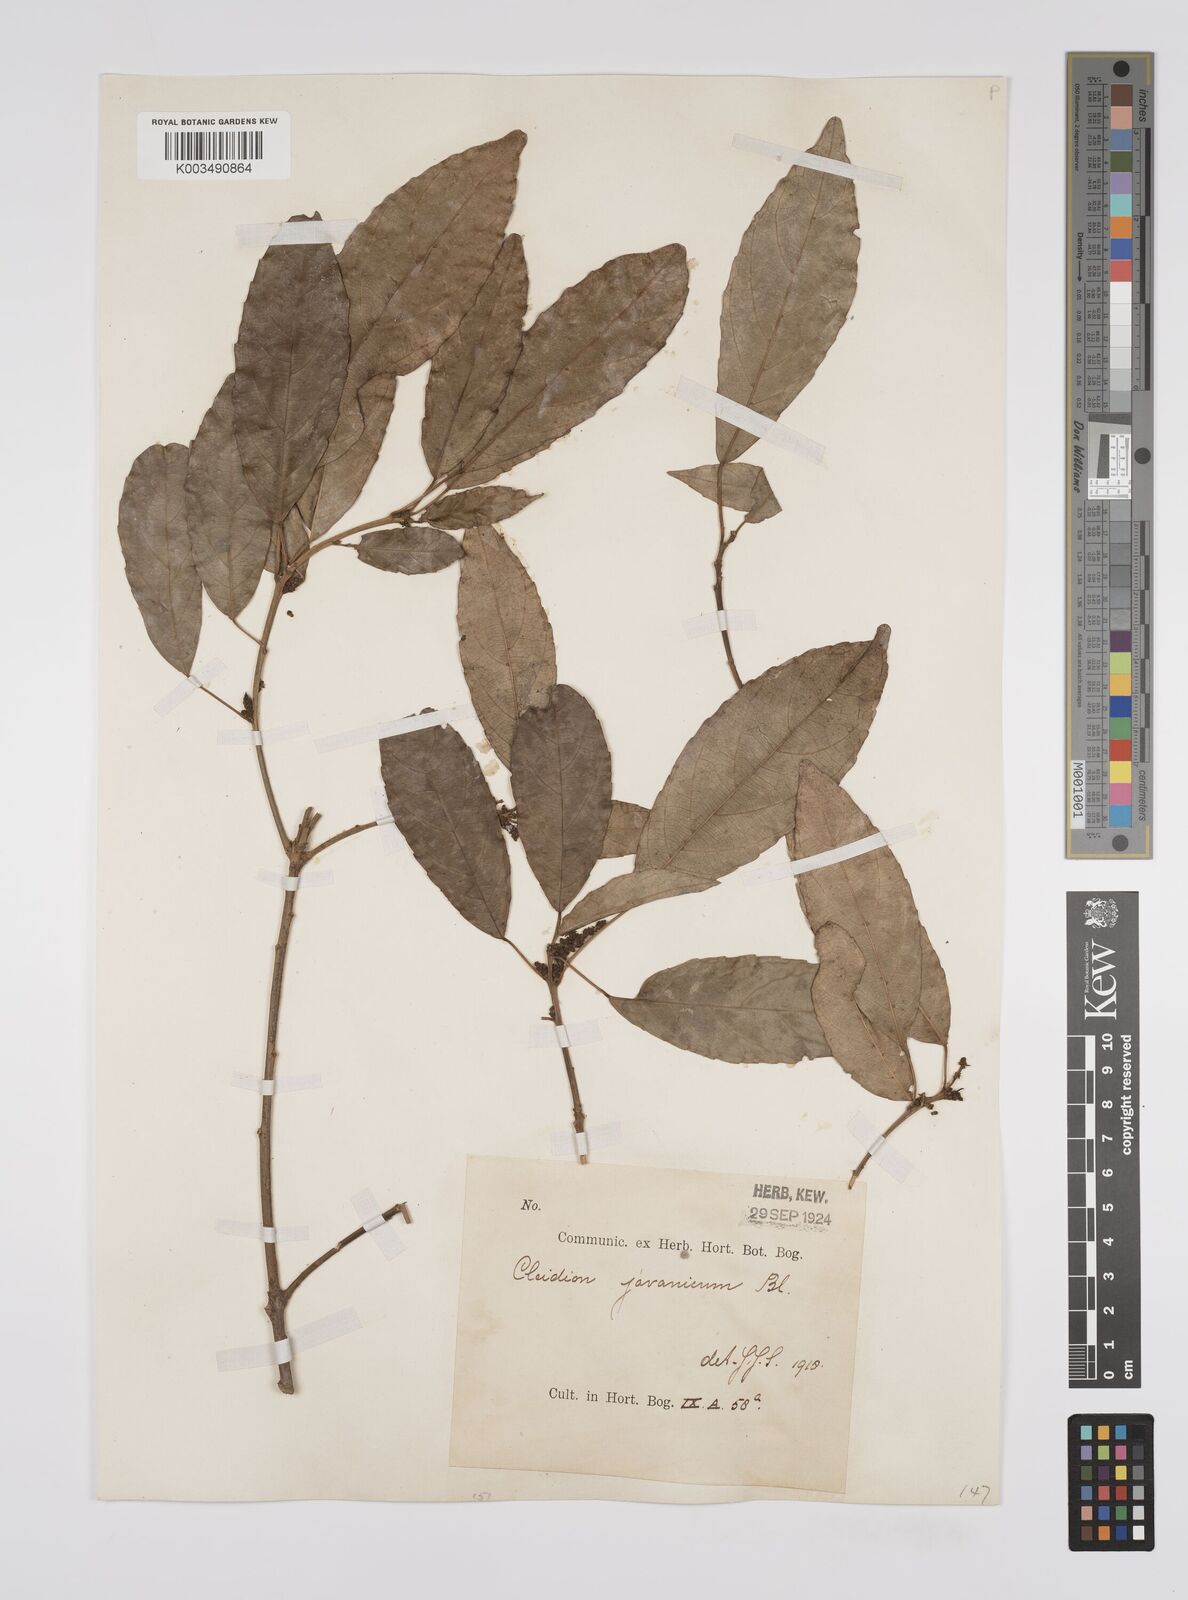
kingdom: Plantae
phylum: Tracheophyta
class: Magnoliopsida
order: Malpighiales
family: Euphorbiaceae
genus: Acalypha
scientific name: Acalypha spiciflora
